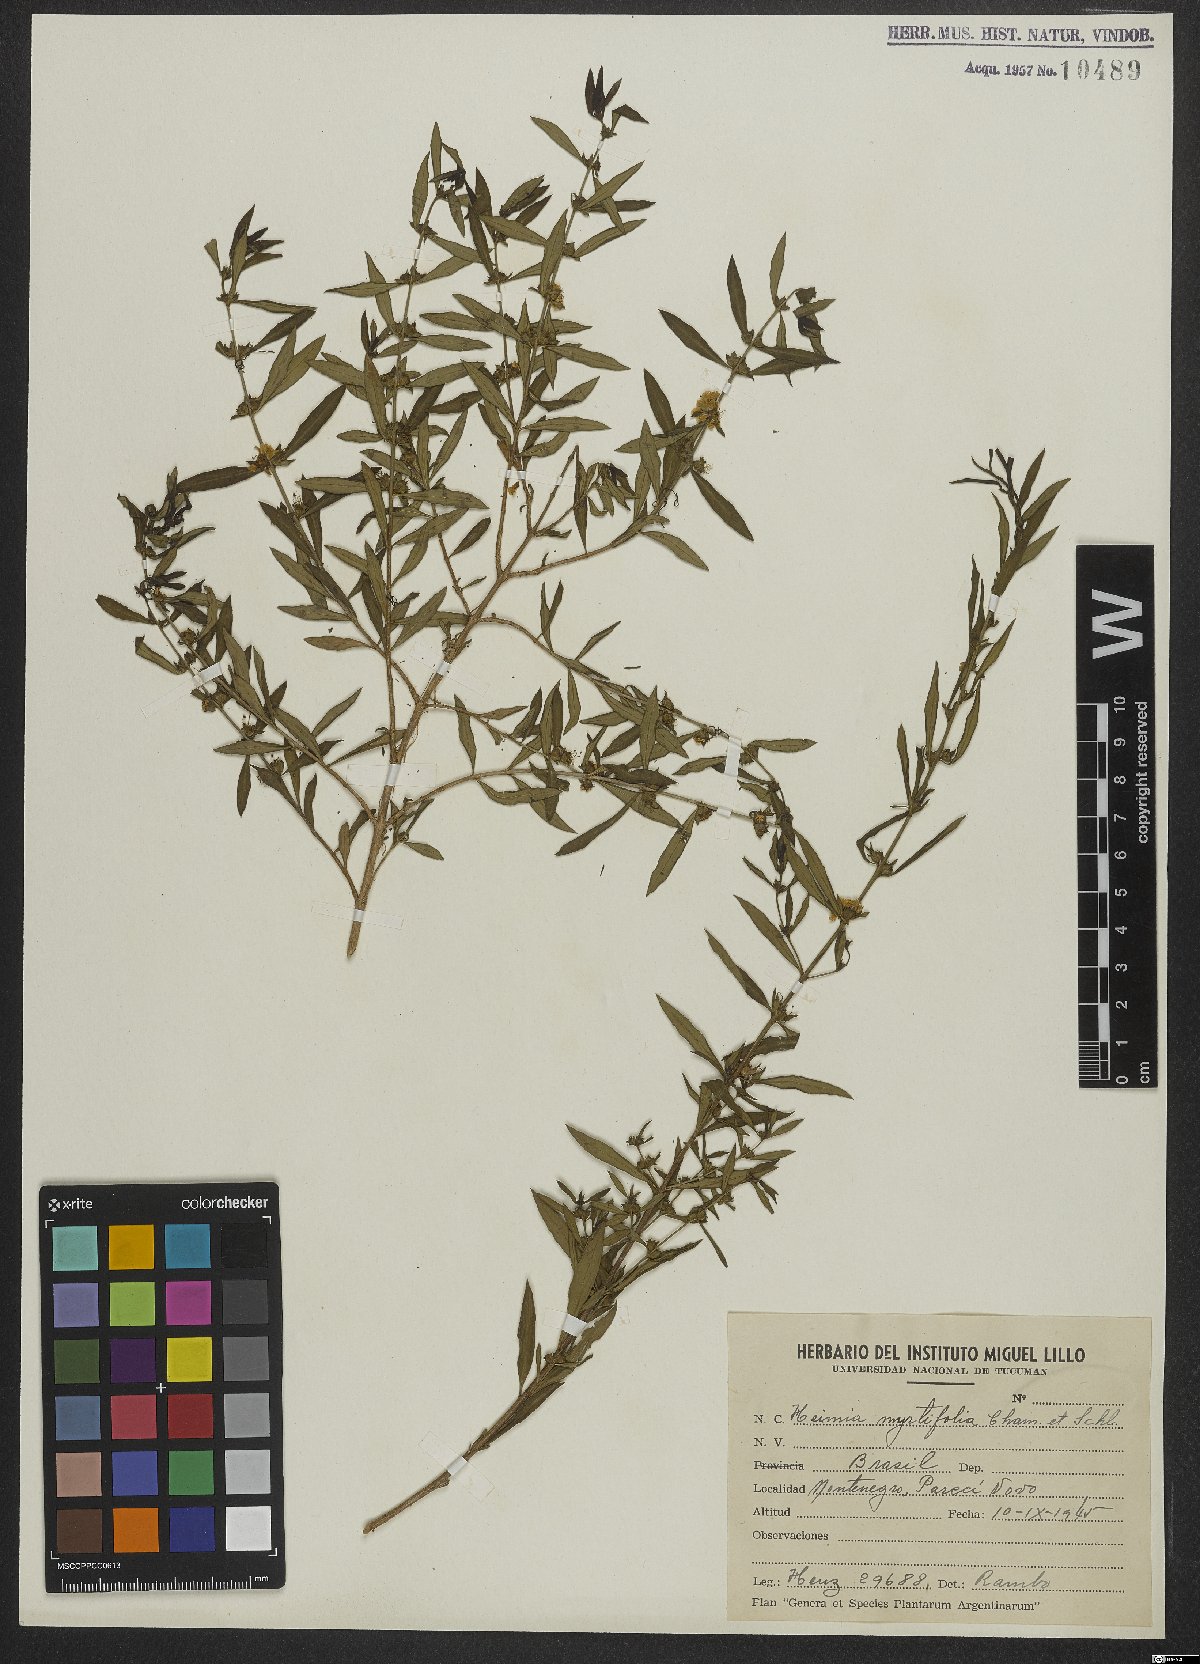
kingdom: Plantae
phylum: Tracheophyta
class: Magnoliopsida
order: Myrtales
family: Lythraceae
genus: Heimia
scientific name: Heimia apetala
